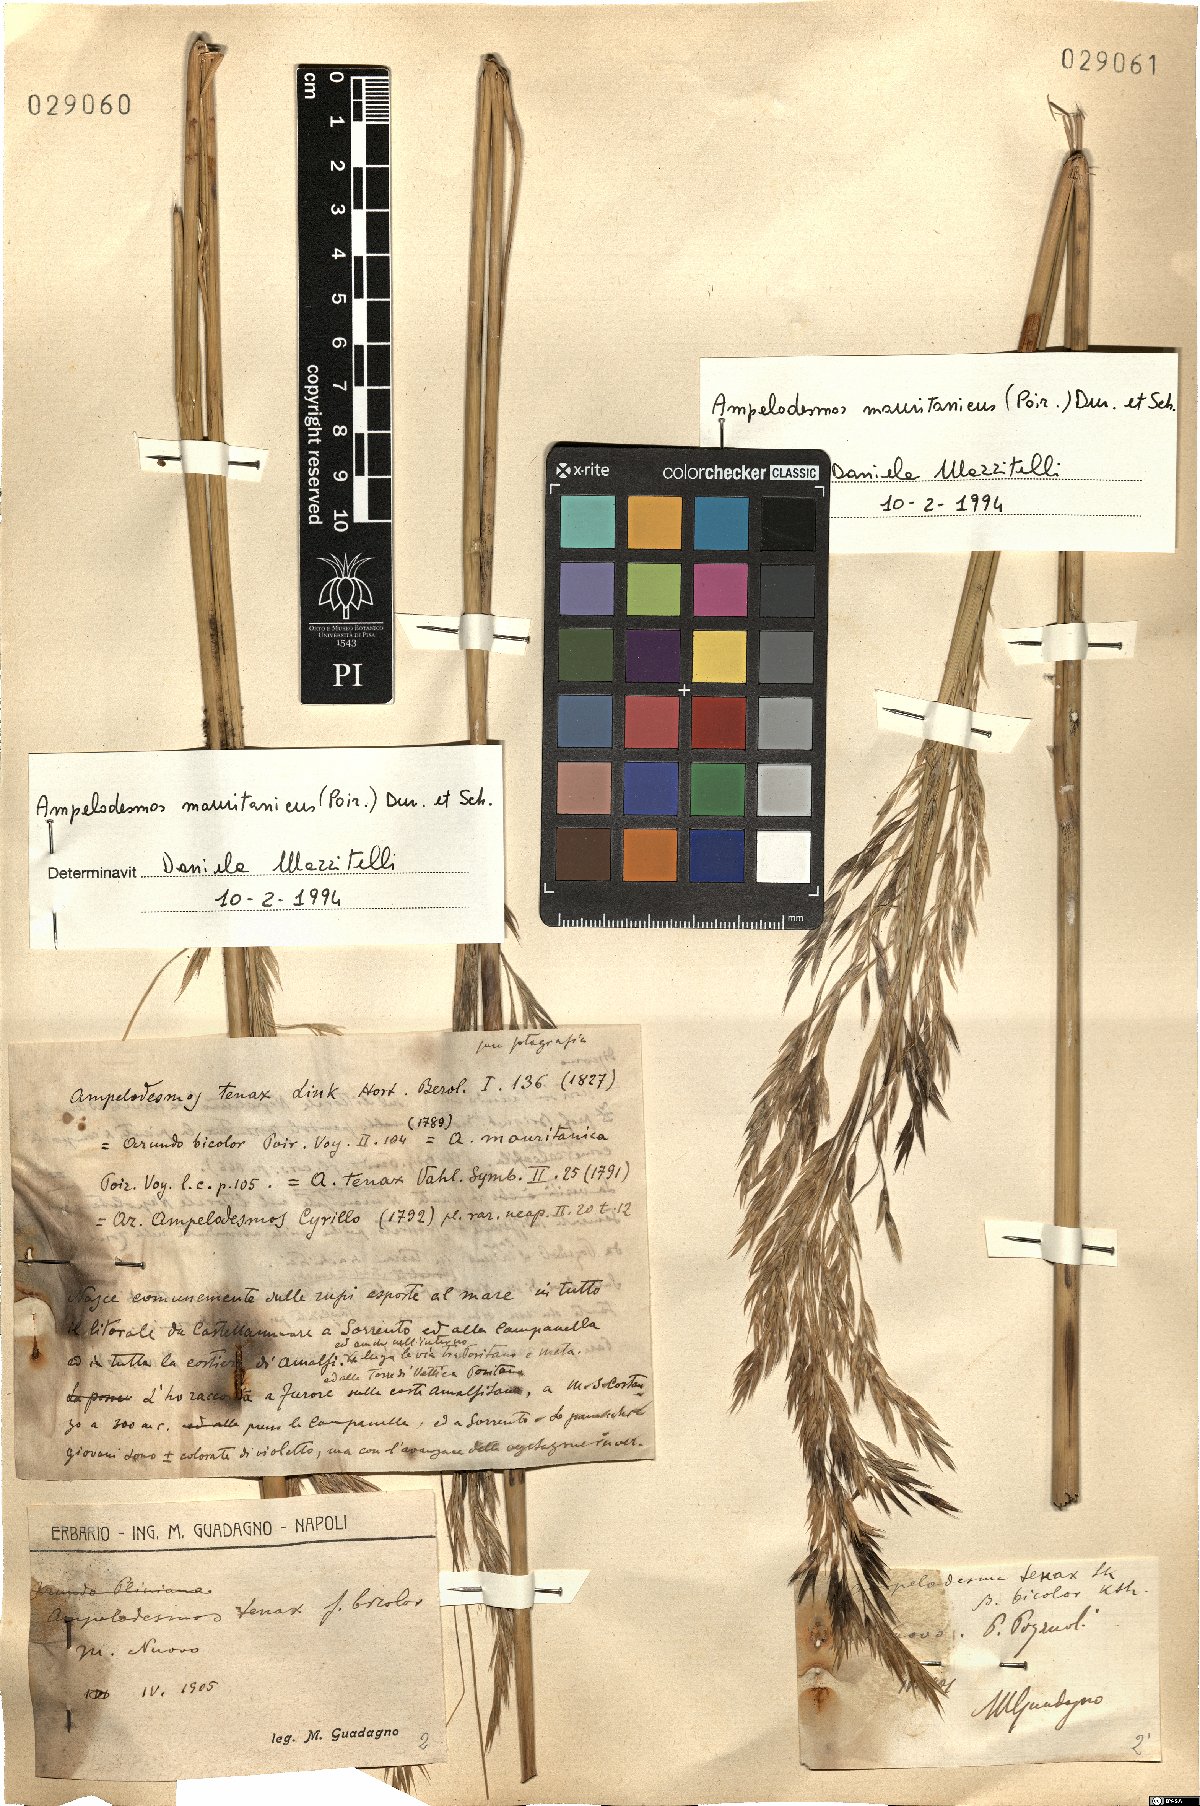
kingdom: Plantae
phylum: Tracheophyta
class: Liliopsida
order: Poales
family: Poaceae
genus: Ampelodesmos
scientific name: Ampelodesmos mauritanicus
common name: Mauritanian grass
